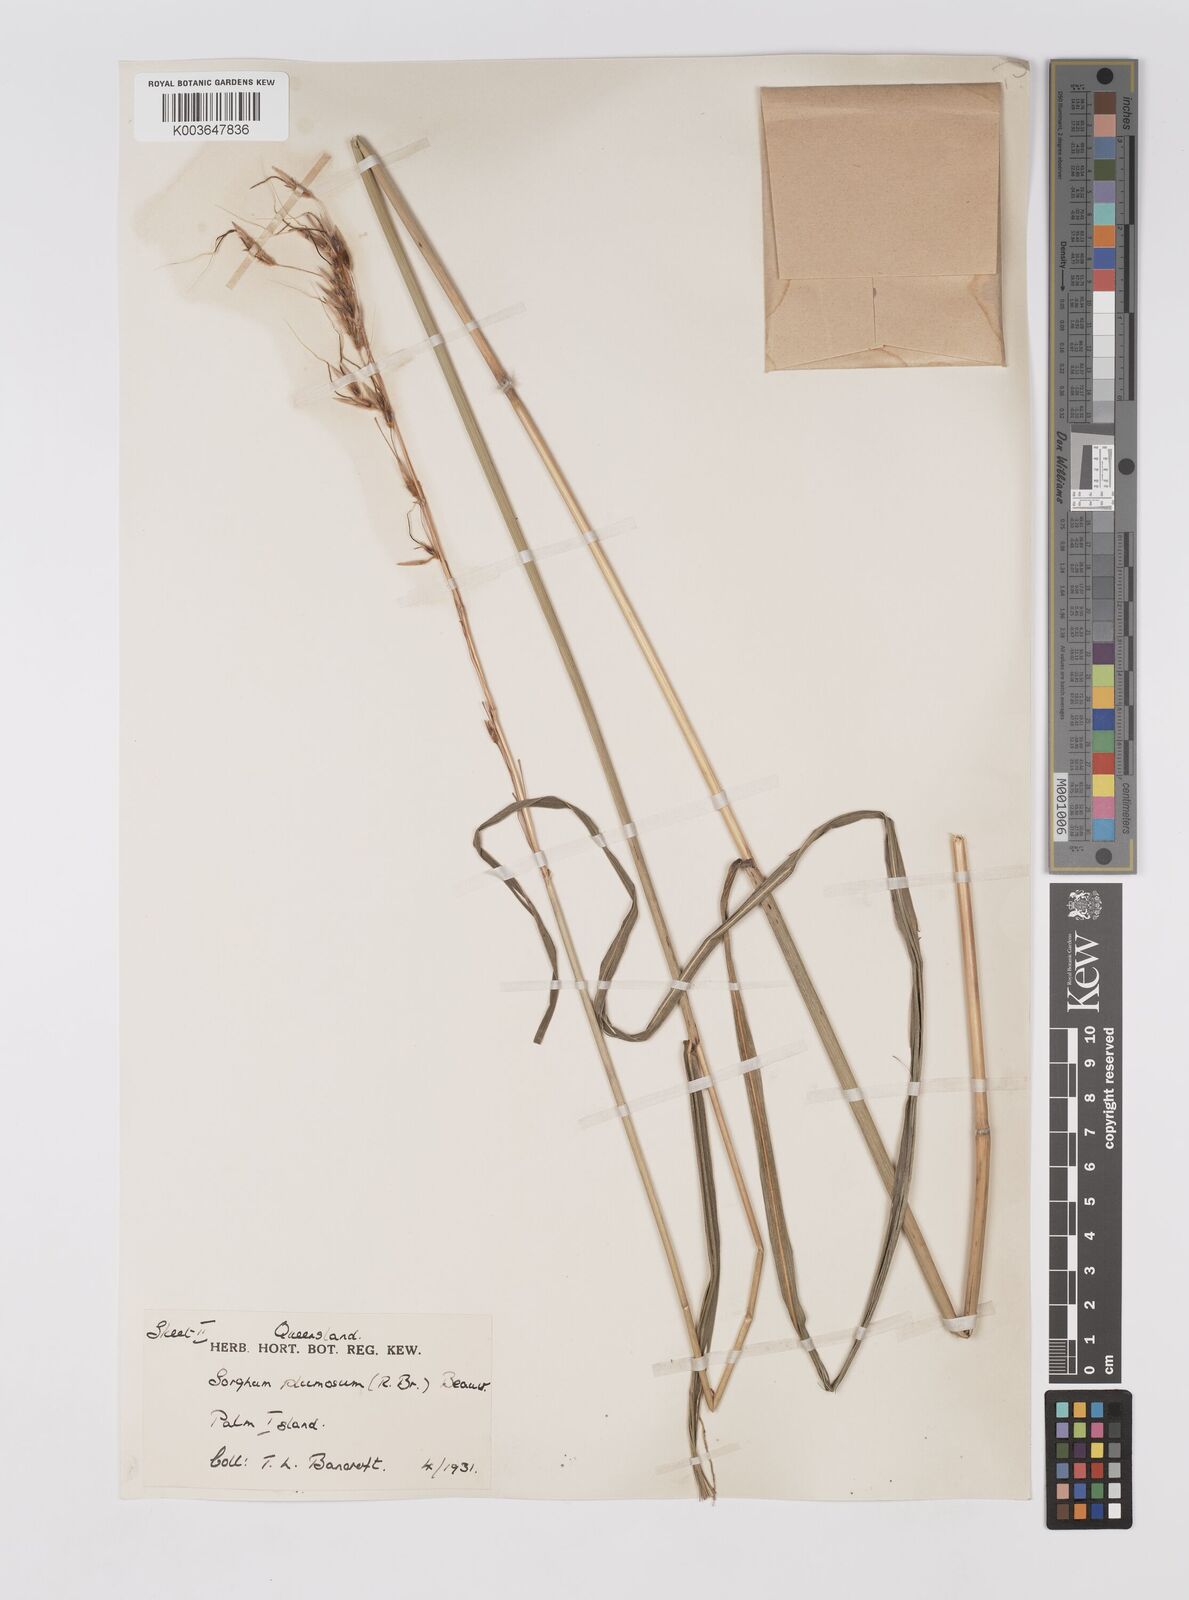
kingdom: Plantae
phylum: Tracheophyta
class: Liliopsida
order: Poales
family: Poaceae
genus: Sarga
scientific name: Sarga plumosa
